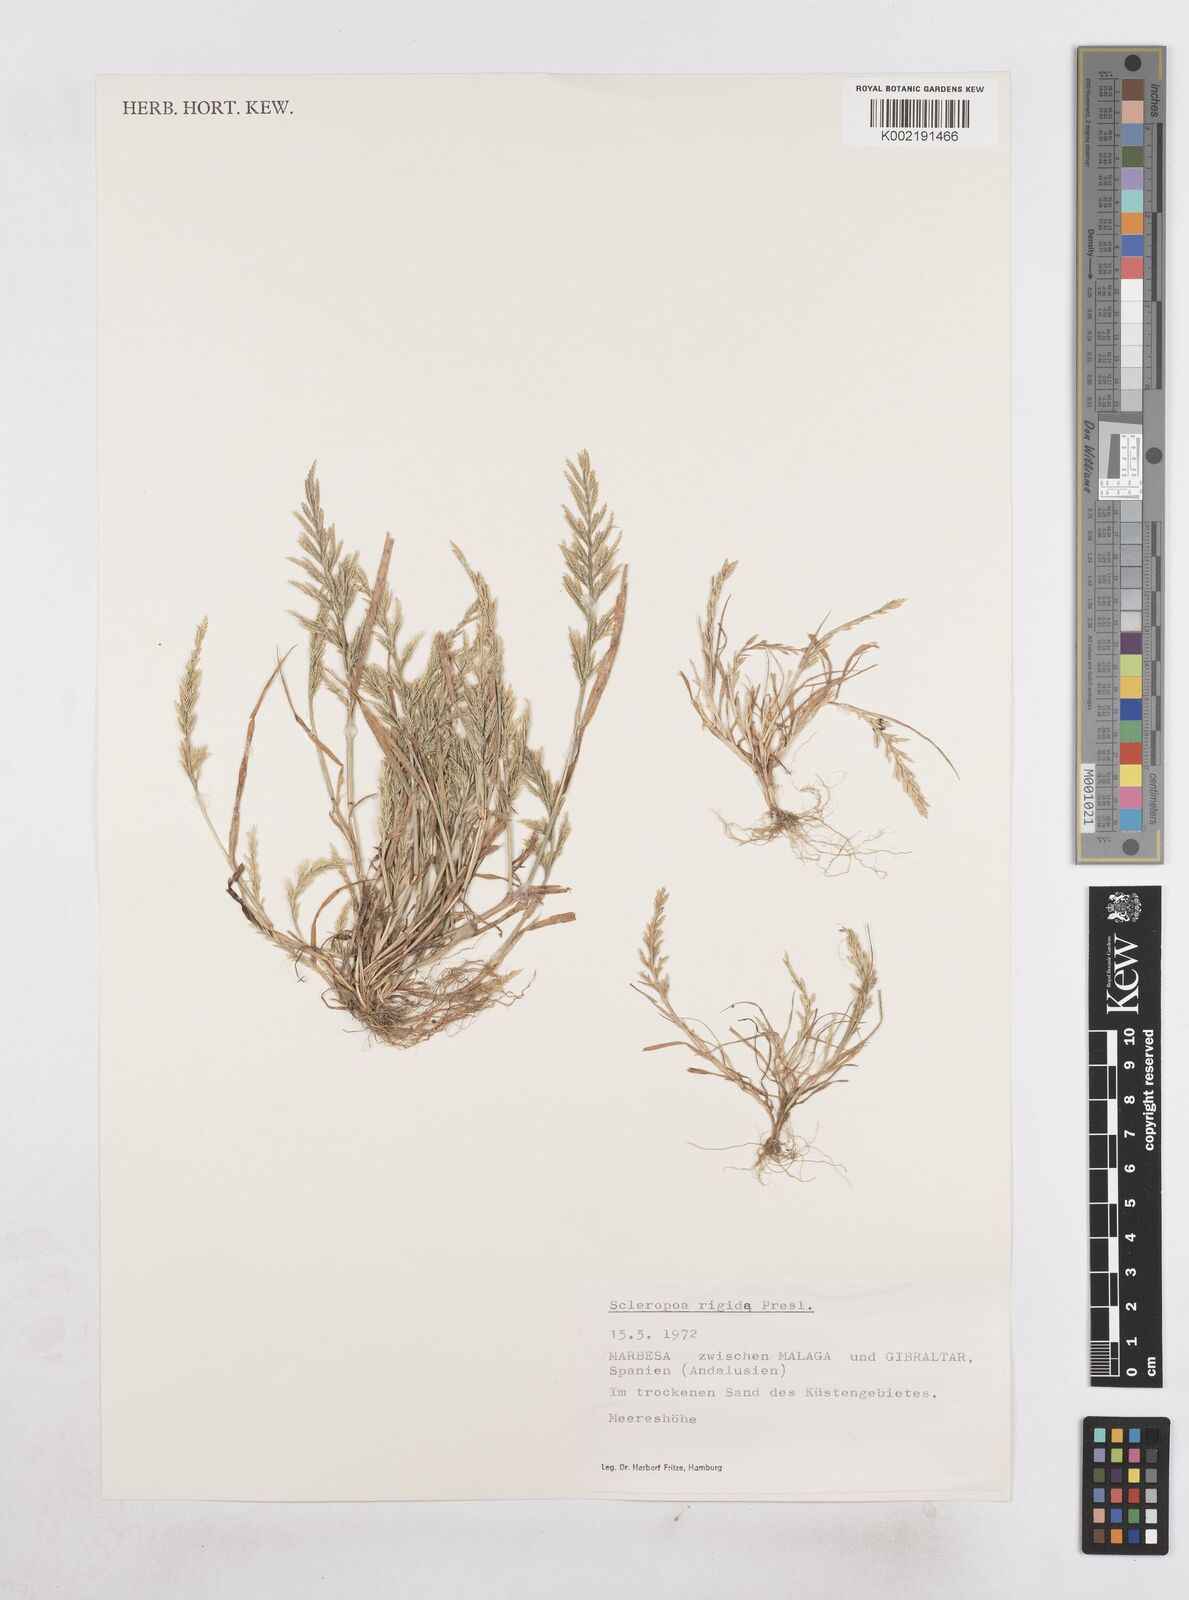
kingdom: Plantae
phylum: Tracheophyta
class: Liliopsida
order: Poales
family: Poaceae
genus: Catapodium
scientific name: Catapodium rigidum
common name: Fern-grass
